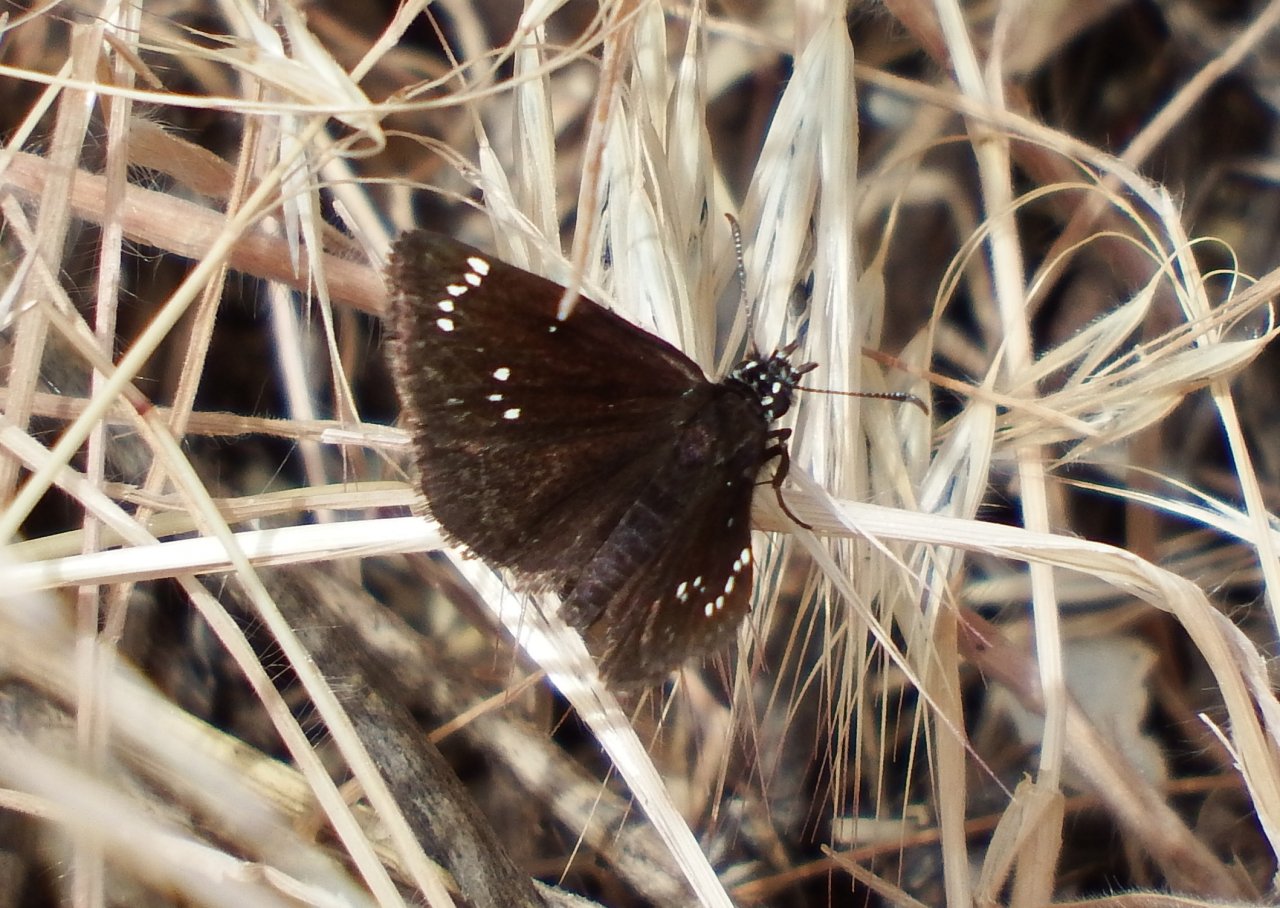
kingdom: Animalia
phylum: Arthropoda
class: Insecta
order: Lepidoptera
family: Hesperiidae
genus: Pholisora
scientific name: Pholisora catullus
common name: Common Sootywing
